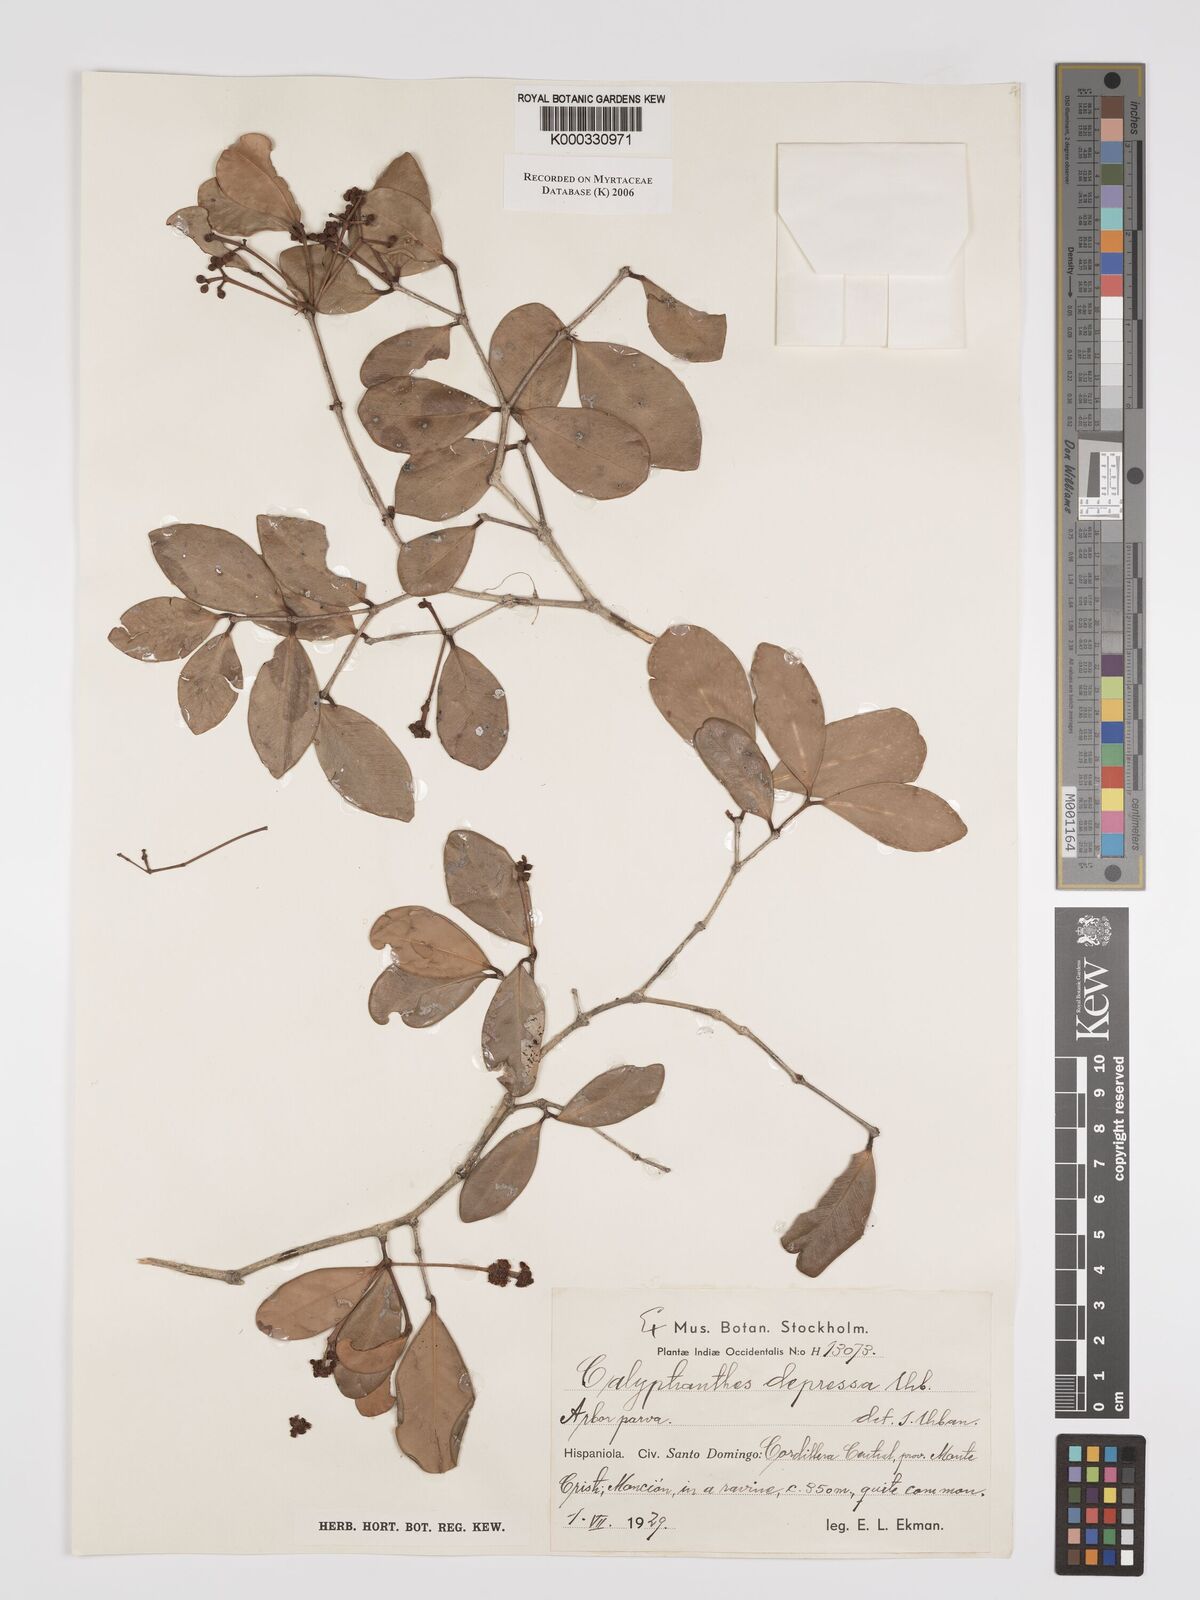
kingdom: Plantae
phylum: Tracheophyta
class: Magnoliopsida
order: Myrtales
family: Myrtaceae
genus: Myrcia
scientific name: Myrcia depressa
